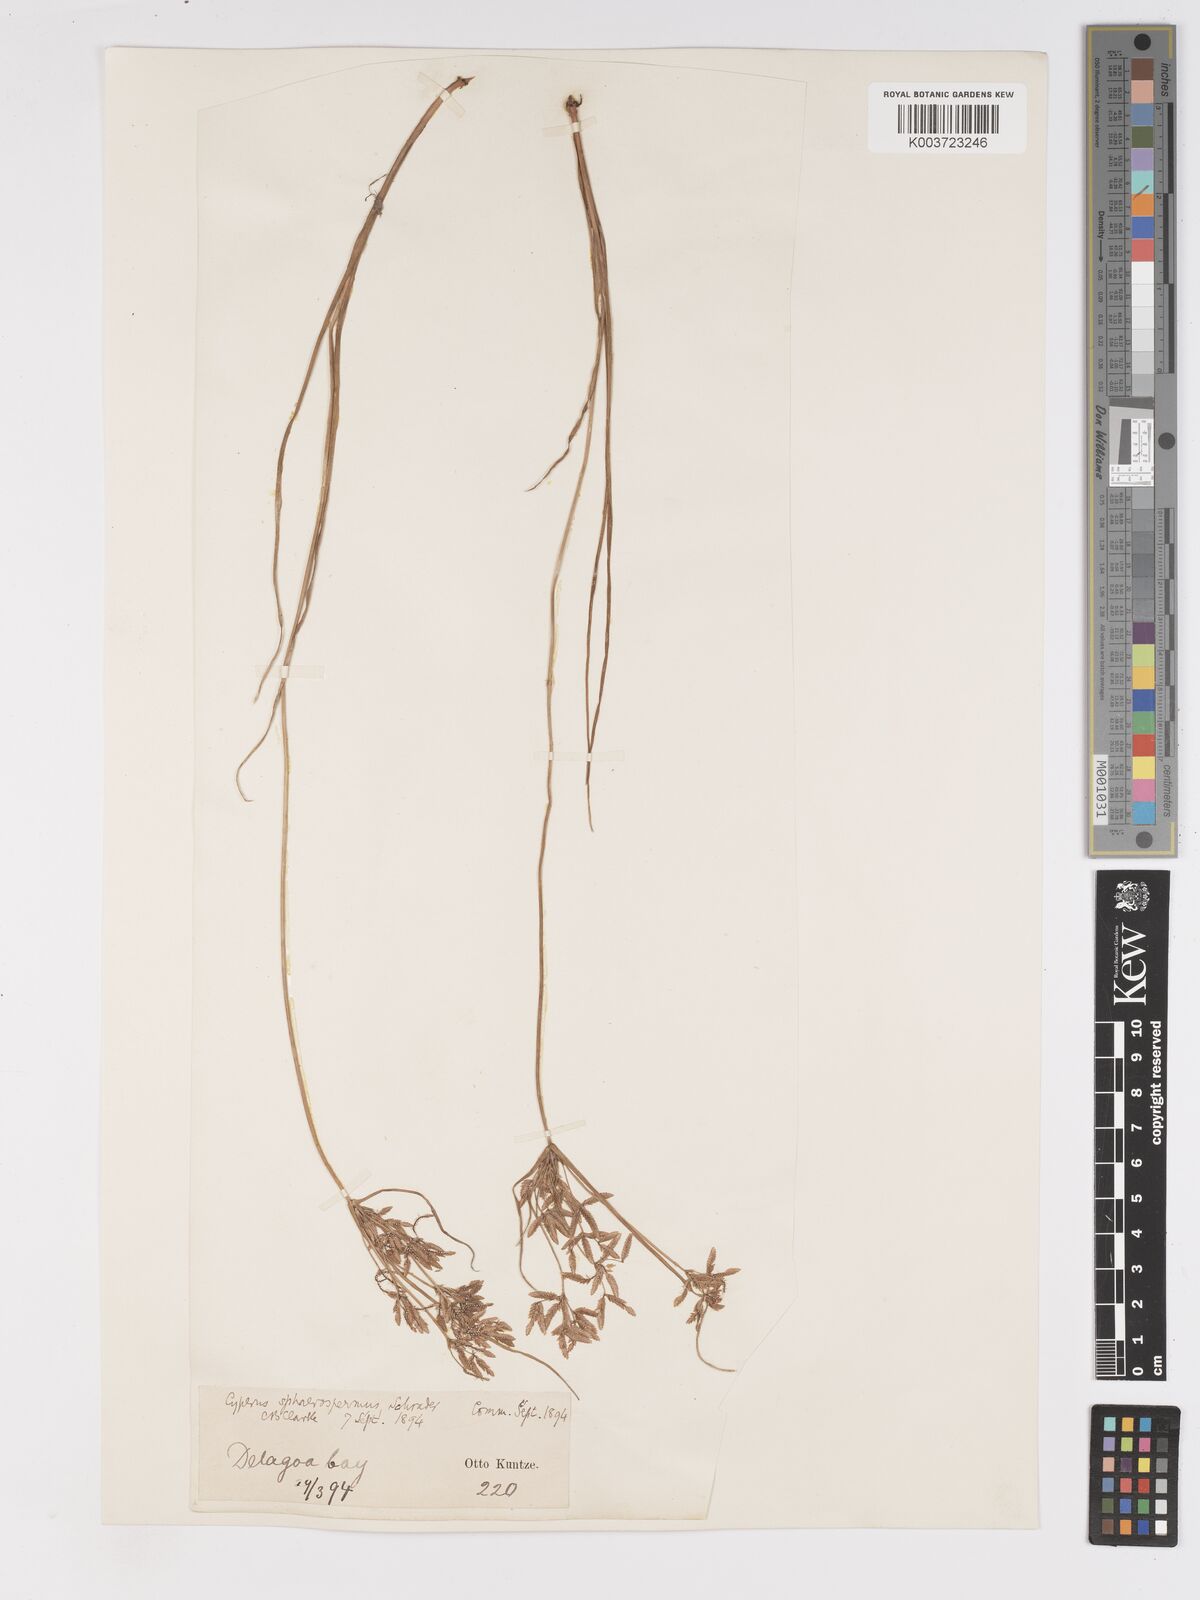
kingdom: Plantae
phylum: Tracheophyta
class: Liliopsida
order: Poales
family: Cyperaceae
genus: Cyperus
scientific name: Cyperus denudatus
